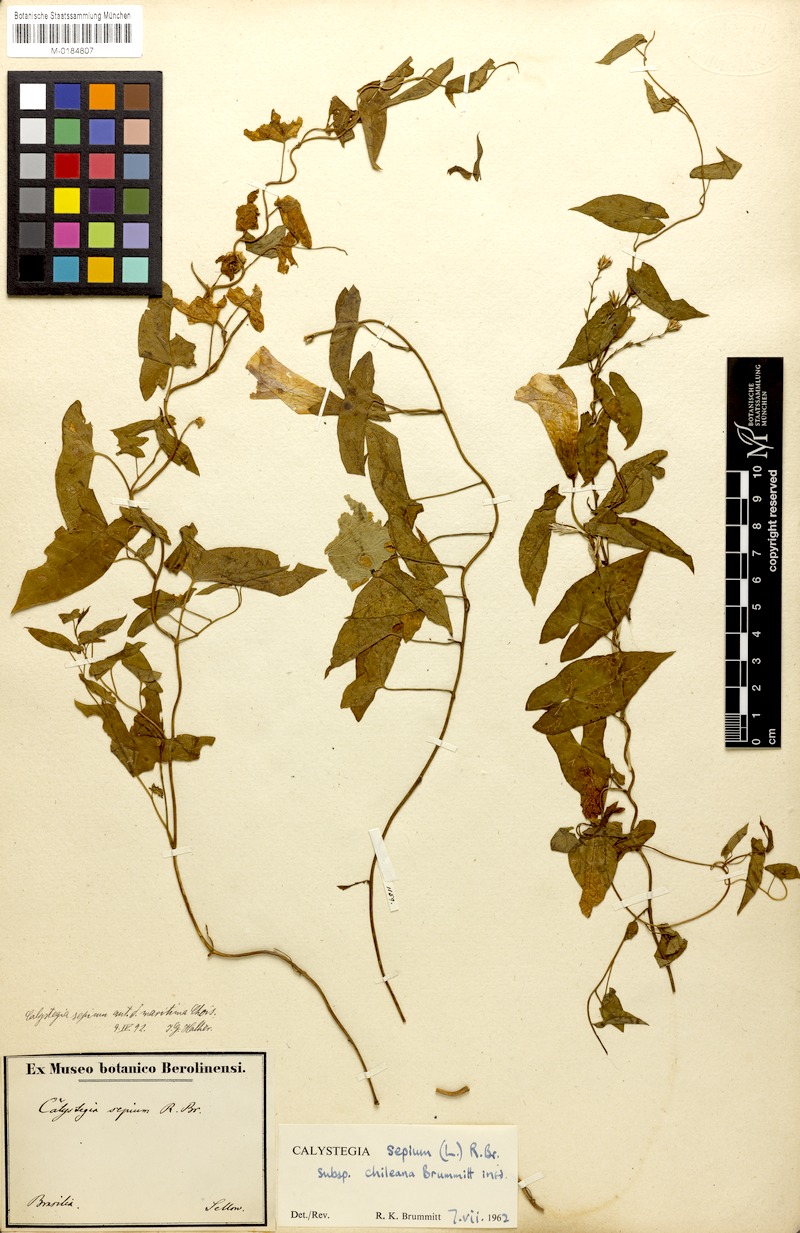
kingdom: Plantae
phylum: Tracheophyta
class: Magnoliopsida
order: Solanales
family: Convolvulaceae
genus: Calystegia
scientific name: Calystegia sepium
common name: Hedge bindweed
